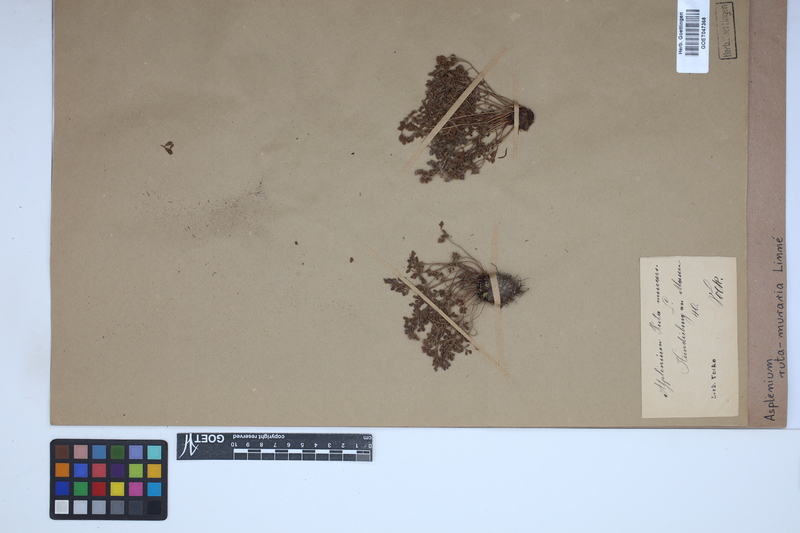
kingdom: Plantae
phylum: Tracheophyta
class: Polypodiopsida
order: Polypodiales
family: Aspleniaceae
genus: Asplenium
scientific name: Asplenium ruta-muraria
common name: Wall-rue
